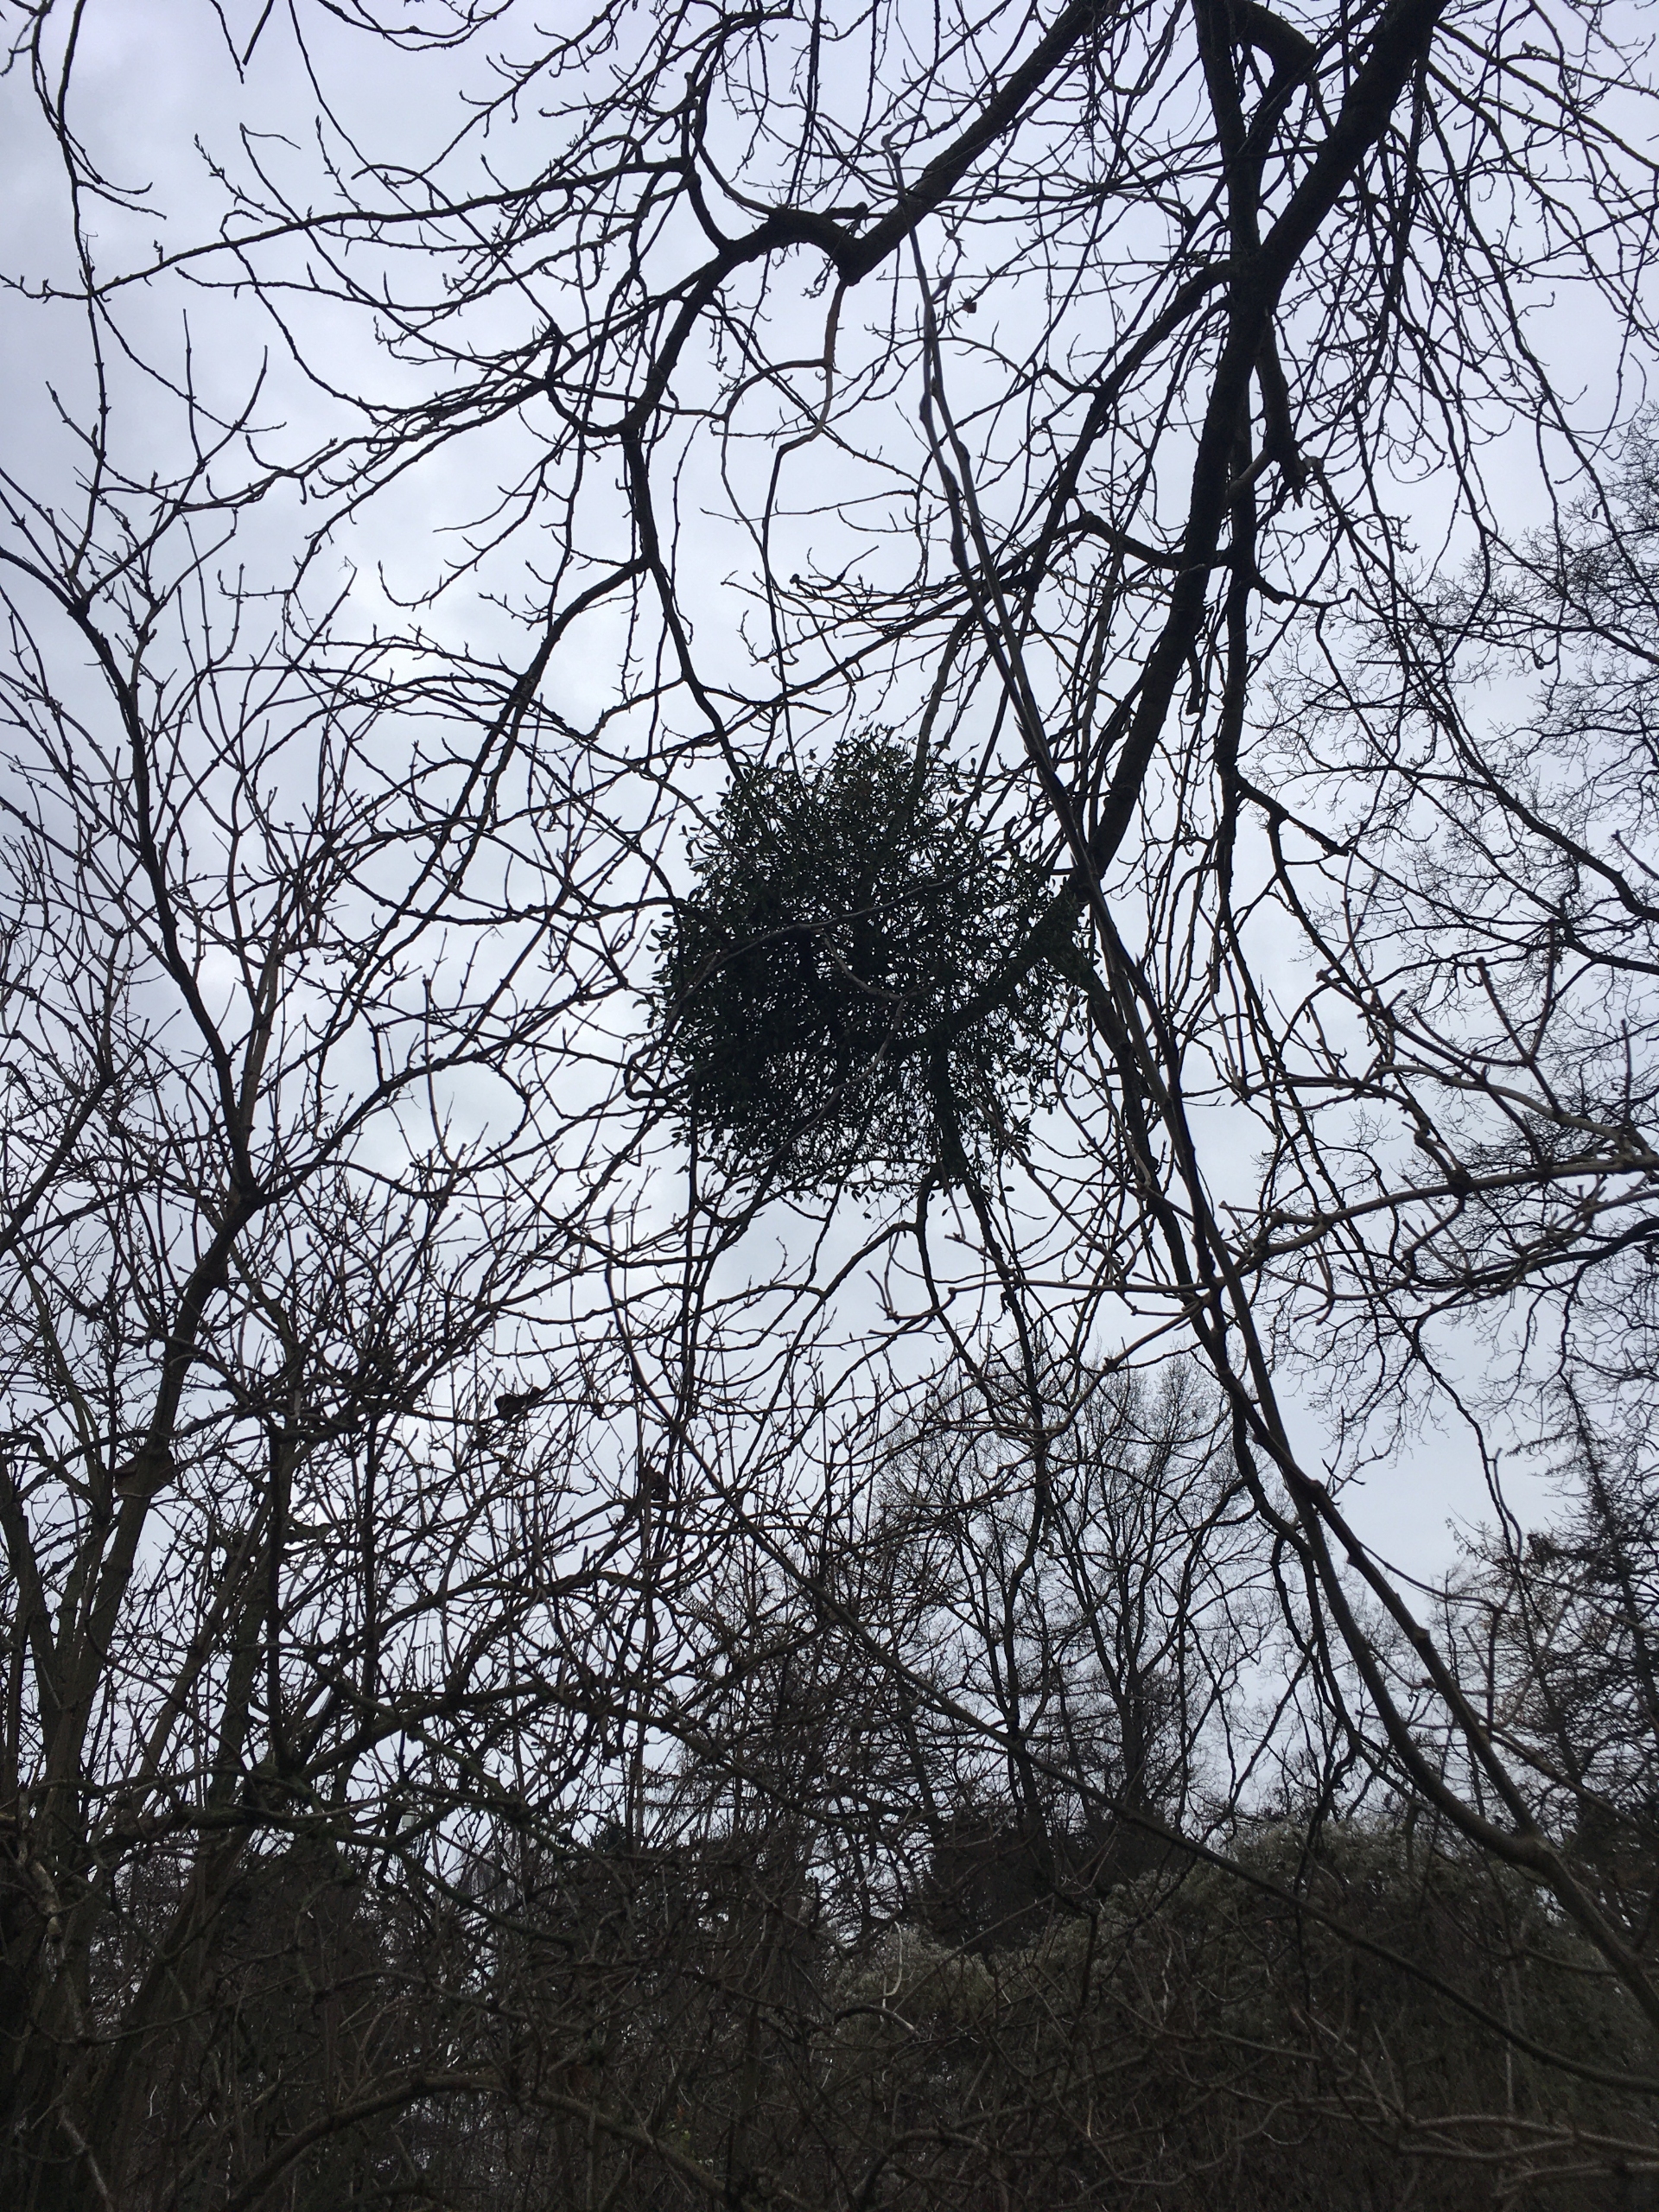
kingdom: Plantae
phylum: Tracheophyta
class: Magnoliopsida
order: Santalales
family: Viscaceae
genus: Viscum
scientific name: Viscum album
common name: Mistelten
